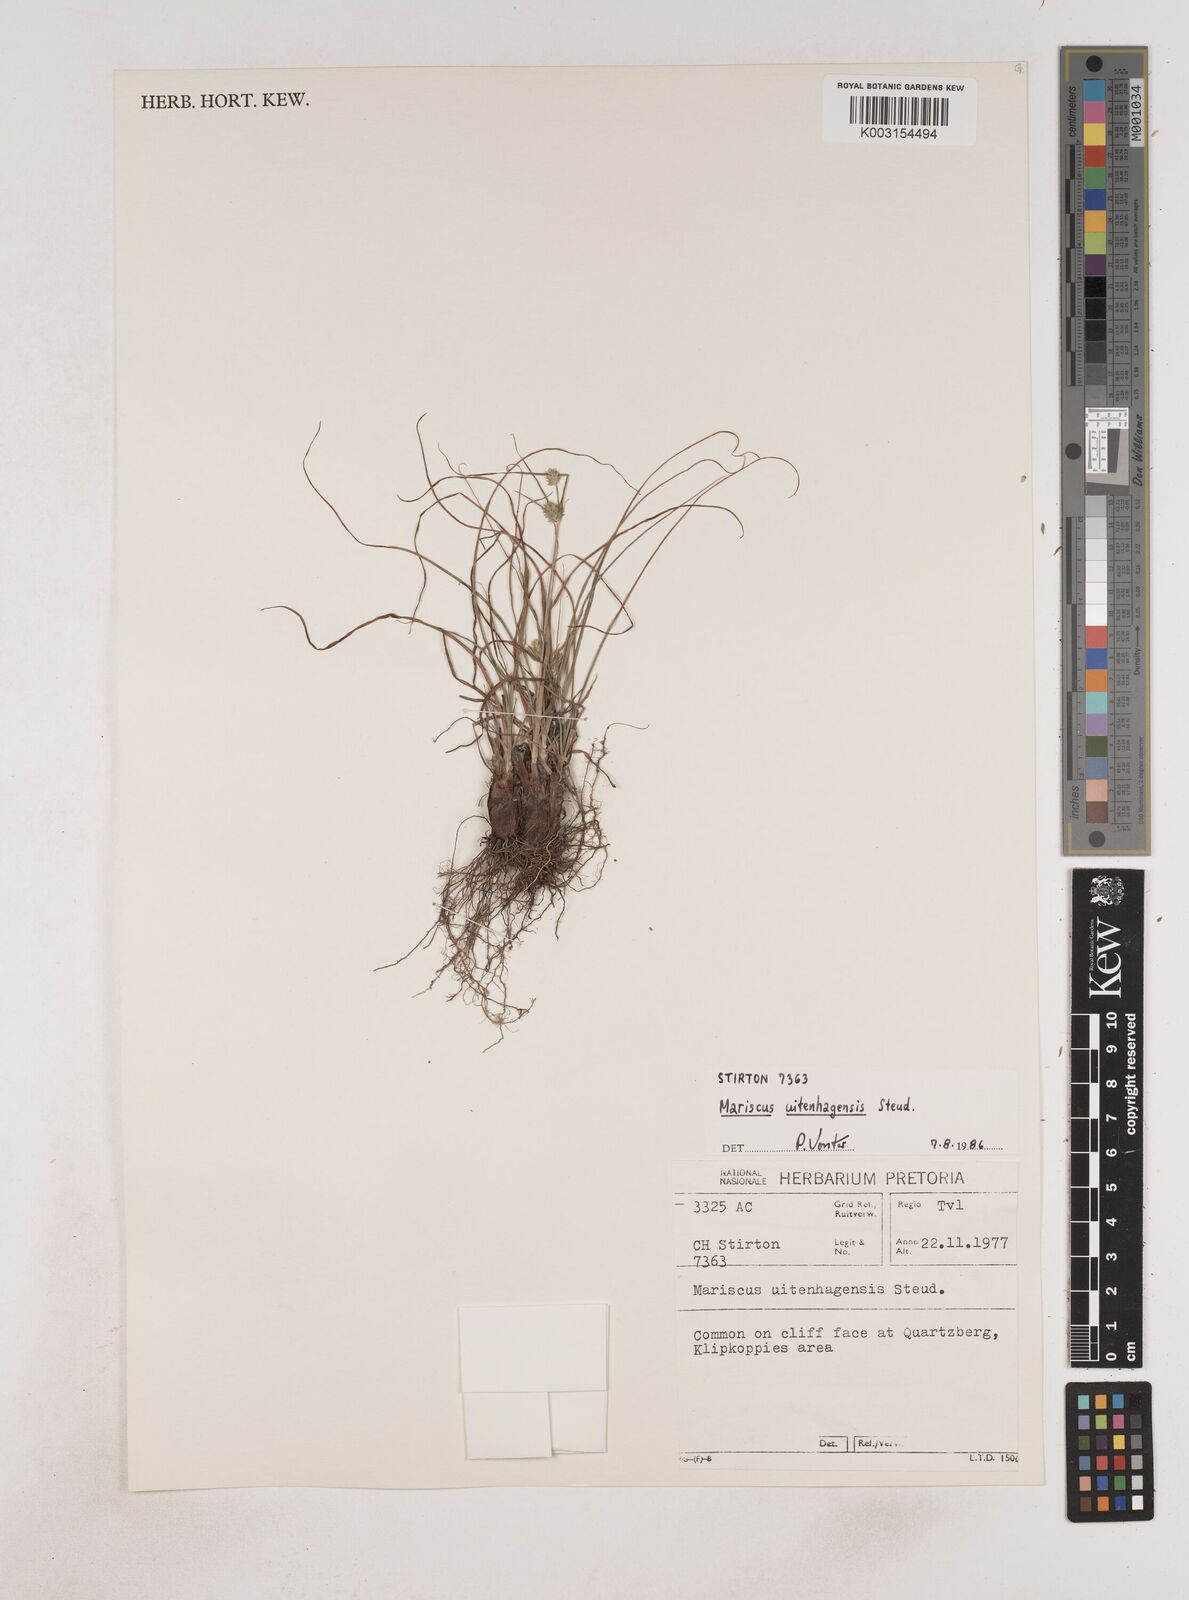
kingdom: Plantae
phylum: Tracheophyta
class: Liliopsida
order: Poales
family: Cyperaceae
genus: Cyperus
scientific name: Cyperus capensis
